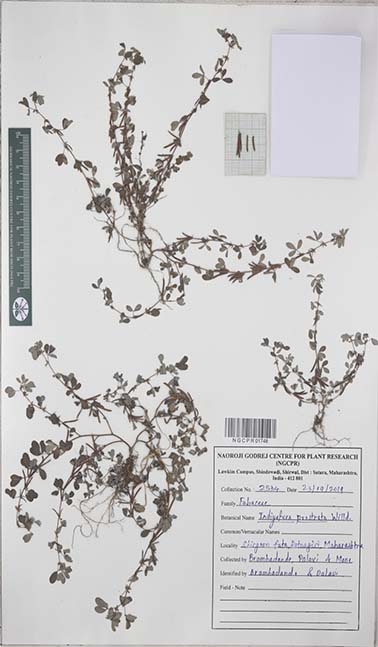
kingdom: Plantae
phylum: Tracheophyta
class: Magnoliopsida
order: Fabales
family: Fabaceae
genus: Indigofera
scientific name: Indigofera prostrata
